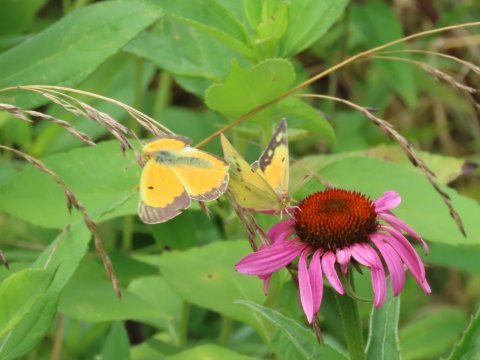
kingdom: Animalia
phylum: Arthropoda
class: Insecta
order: Lepidoptera
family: Pieridae
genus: Colias
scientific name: Colias eurytheme
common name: Orange Sulphur
